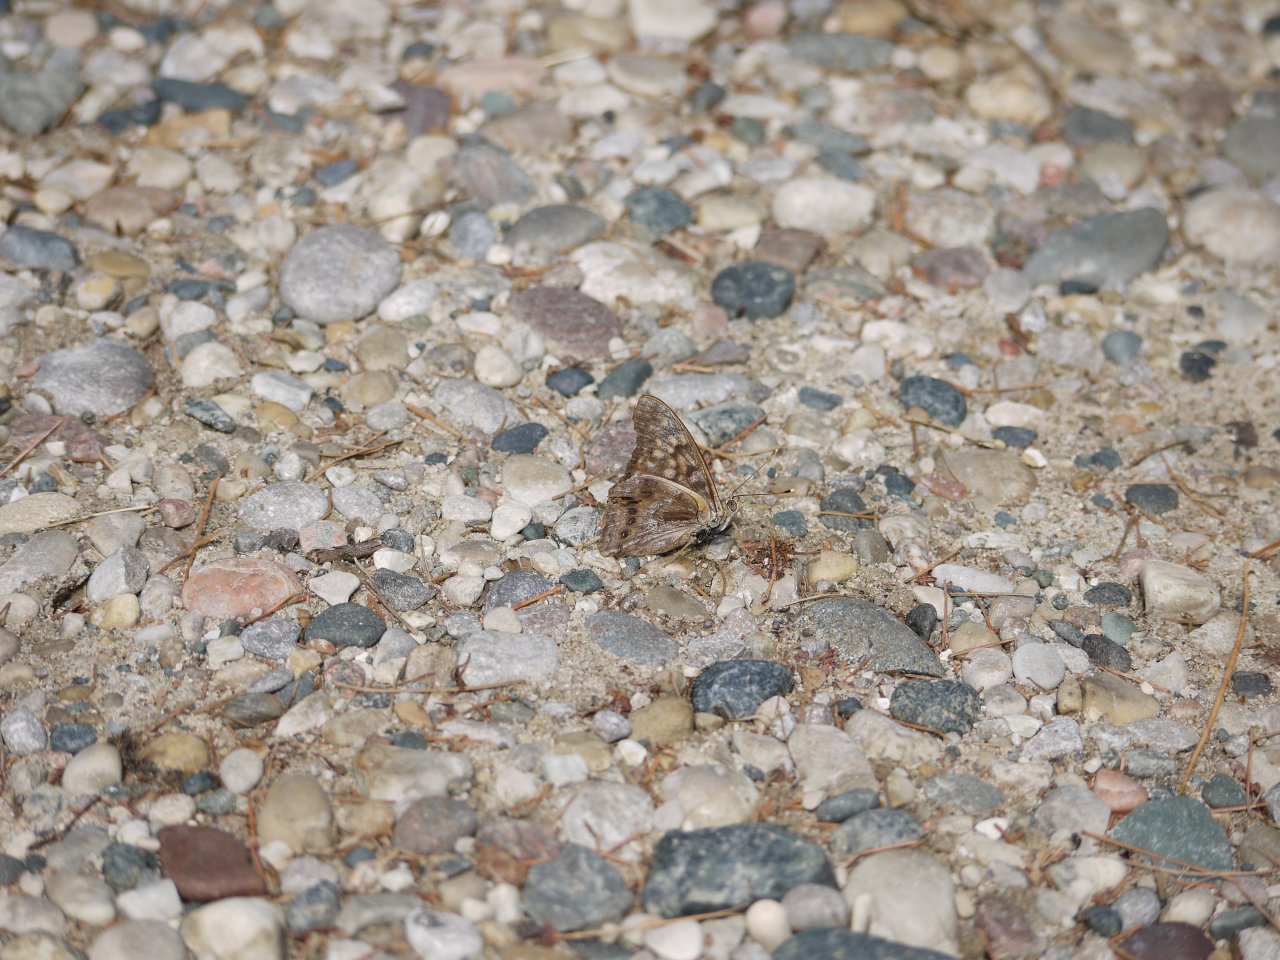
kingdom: Animalia
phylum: Arthropoda
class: Insecta
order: Lepidoptera
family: Nymphalidae
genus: Asterocampa
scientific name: Asterocampa clyton
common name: Tawny Emperor
